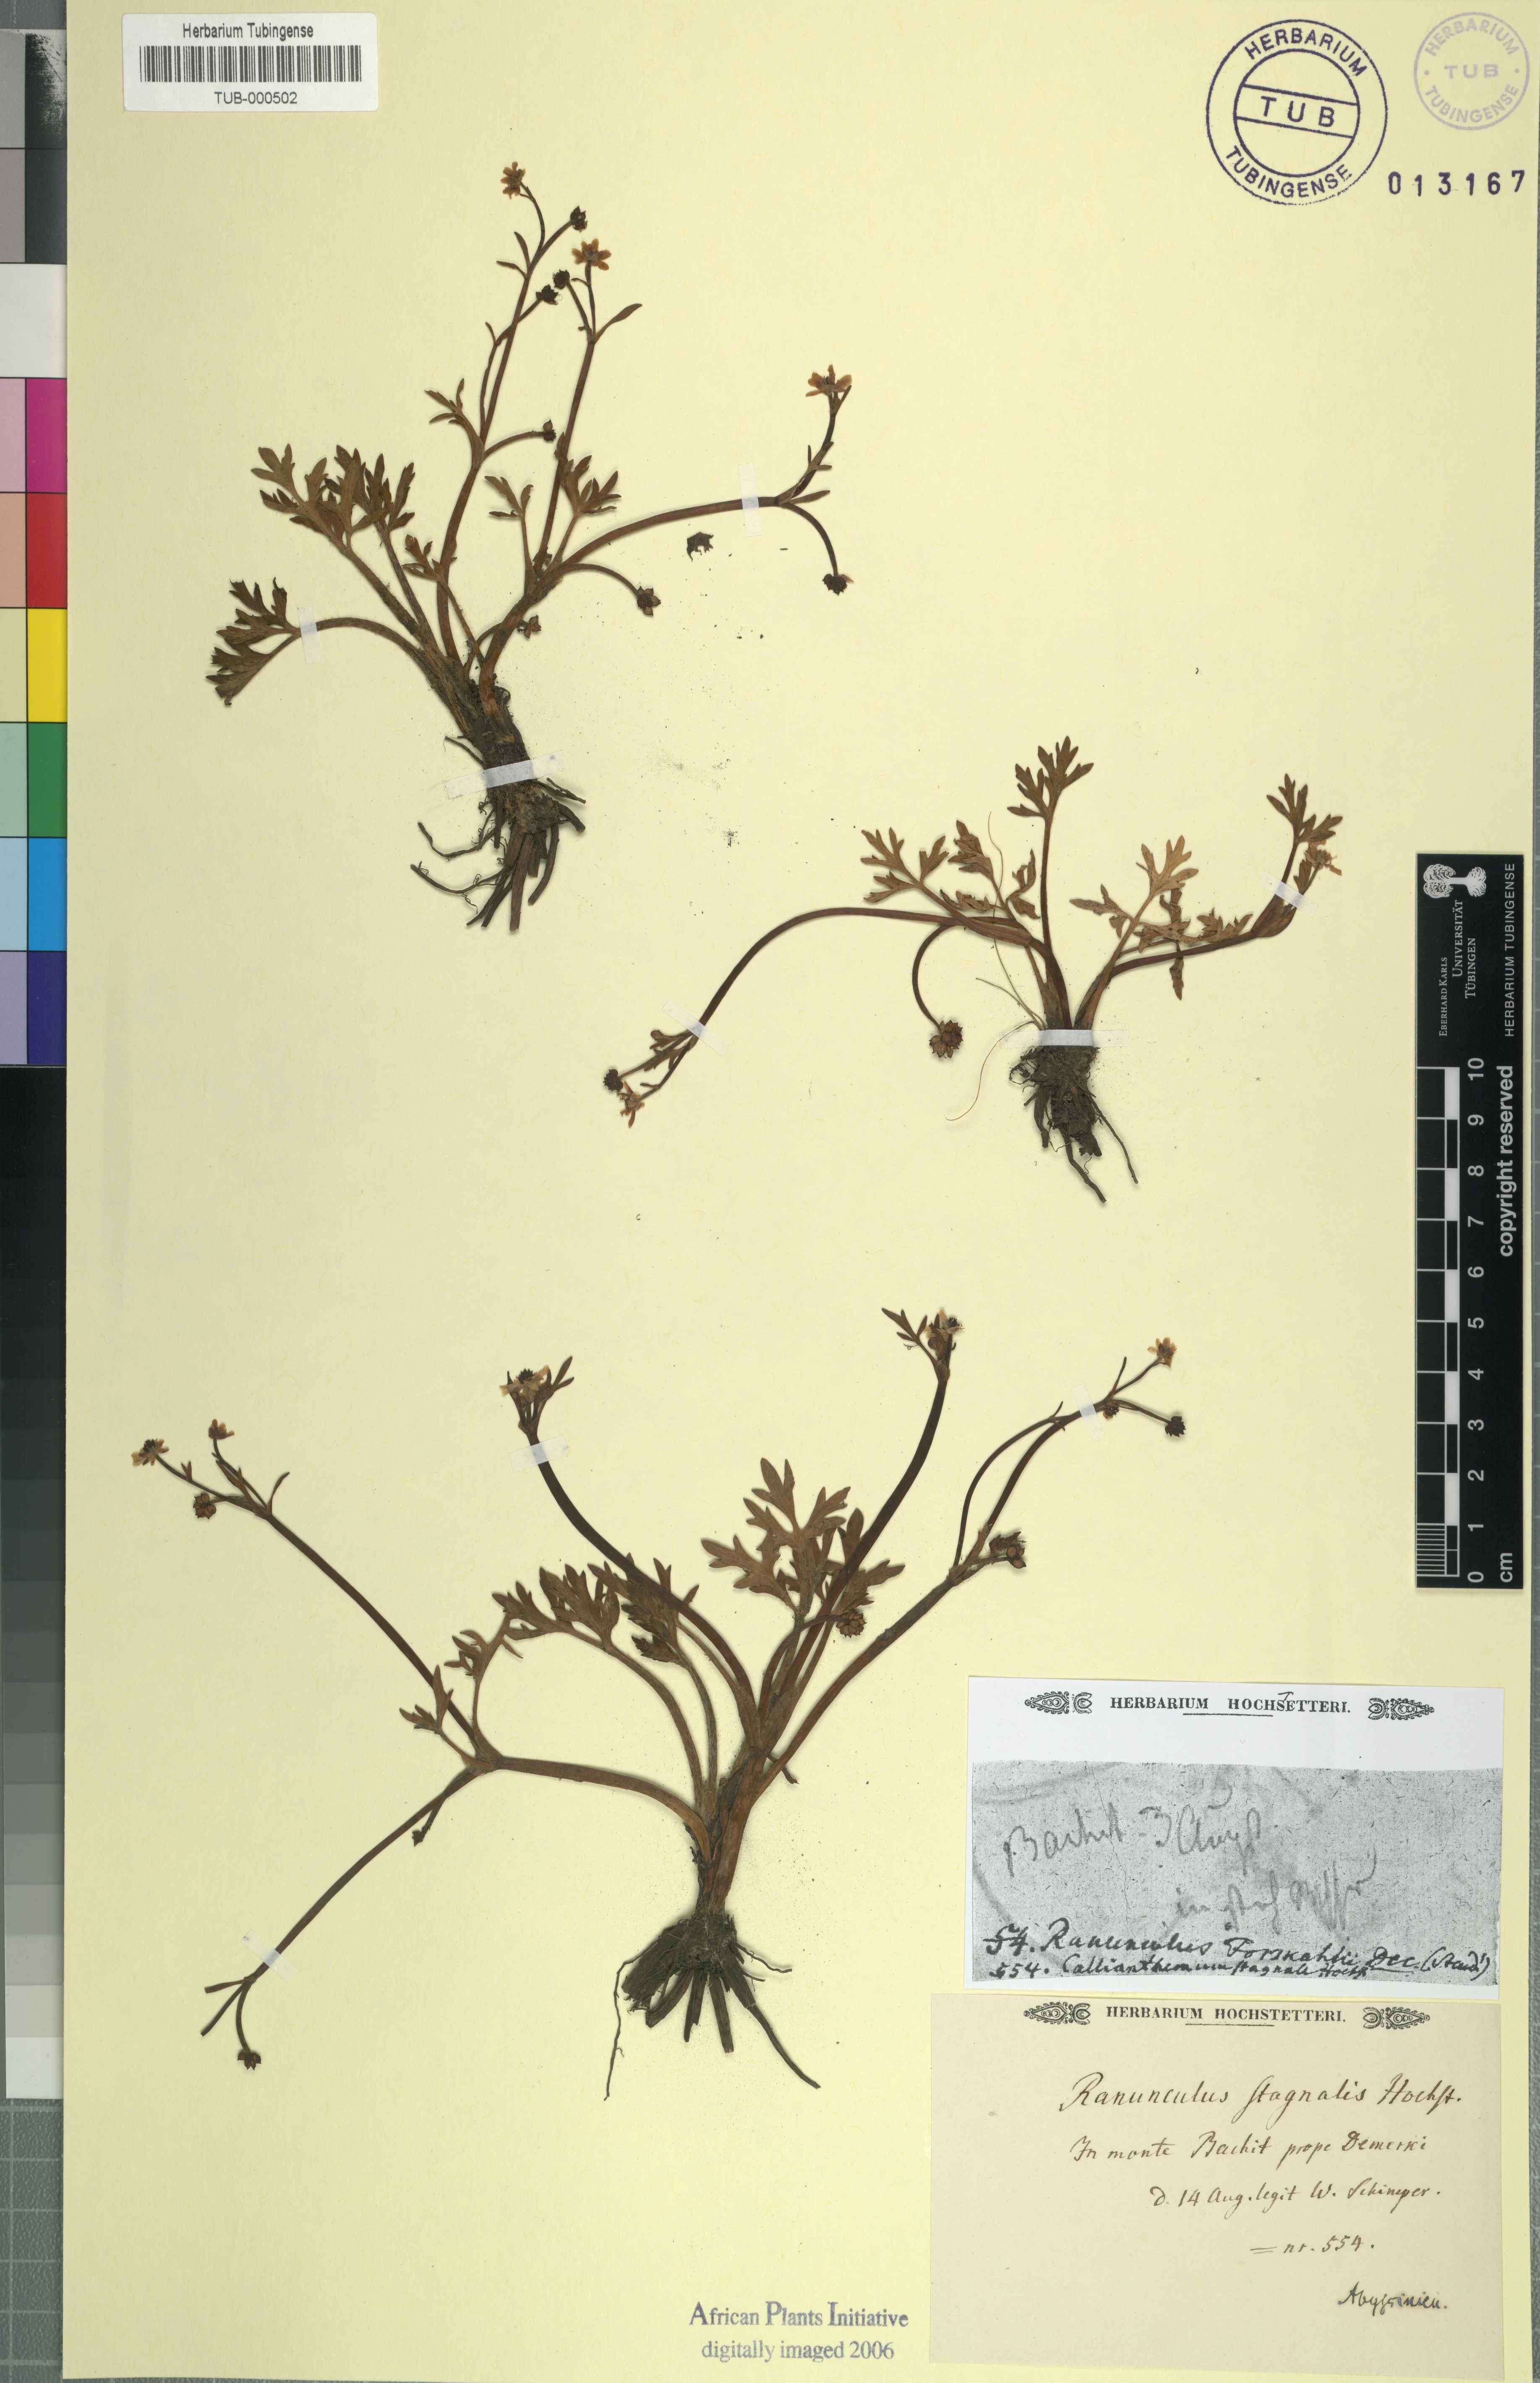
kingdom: Plantae
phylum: Tracheophyta
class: Magnoliopsida
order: Ranunculales
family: Ranunculaceae
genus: Ranunculus
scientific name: Ranunculus simensis
